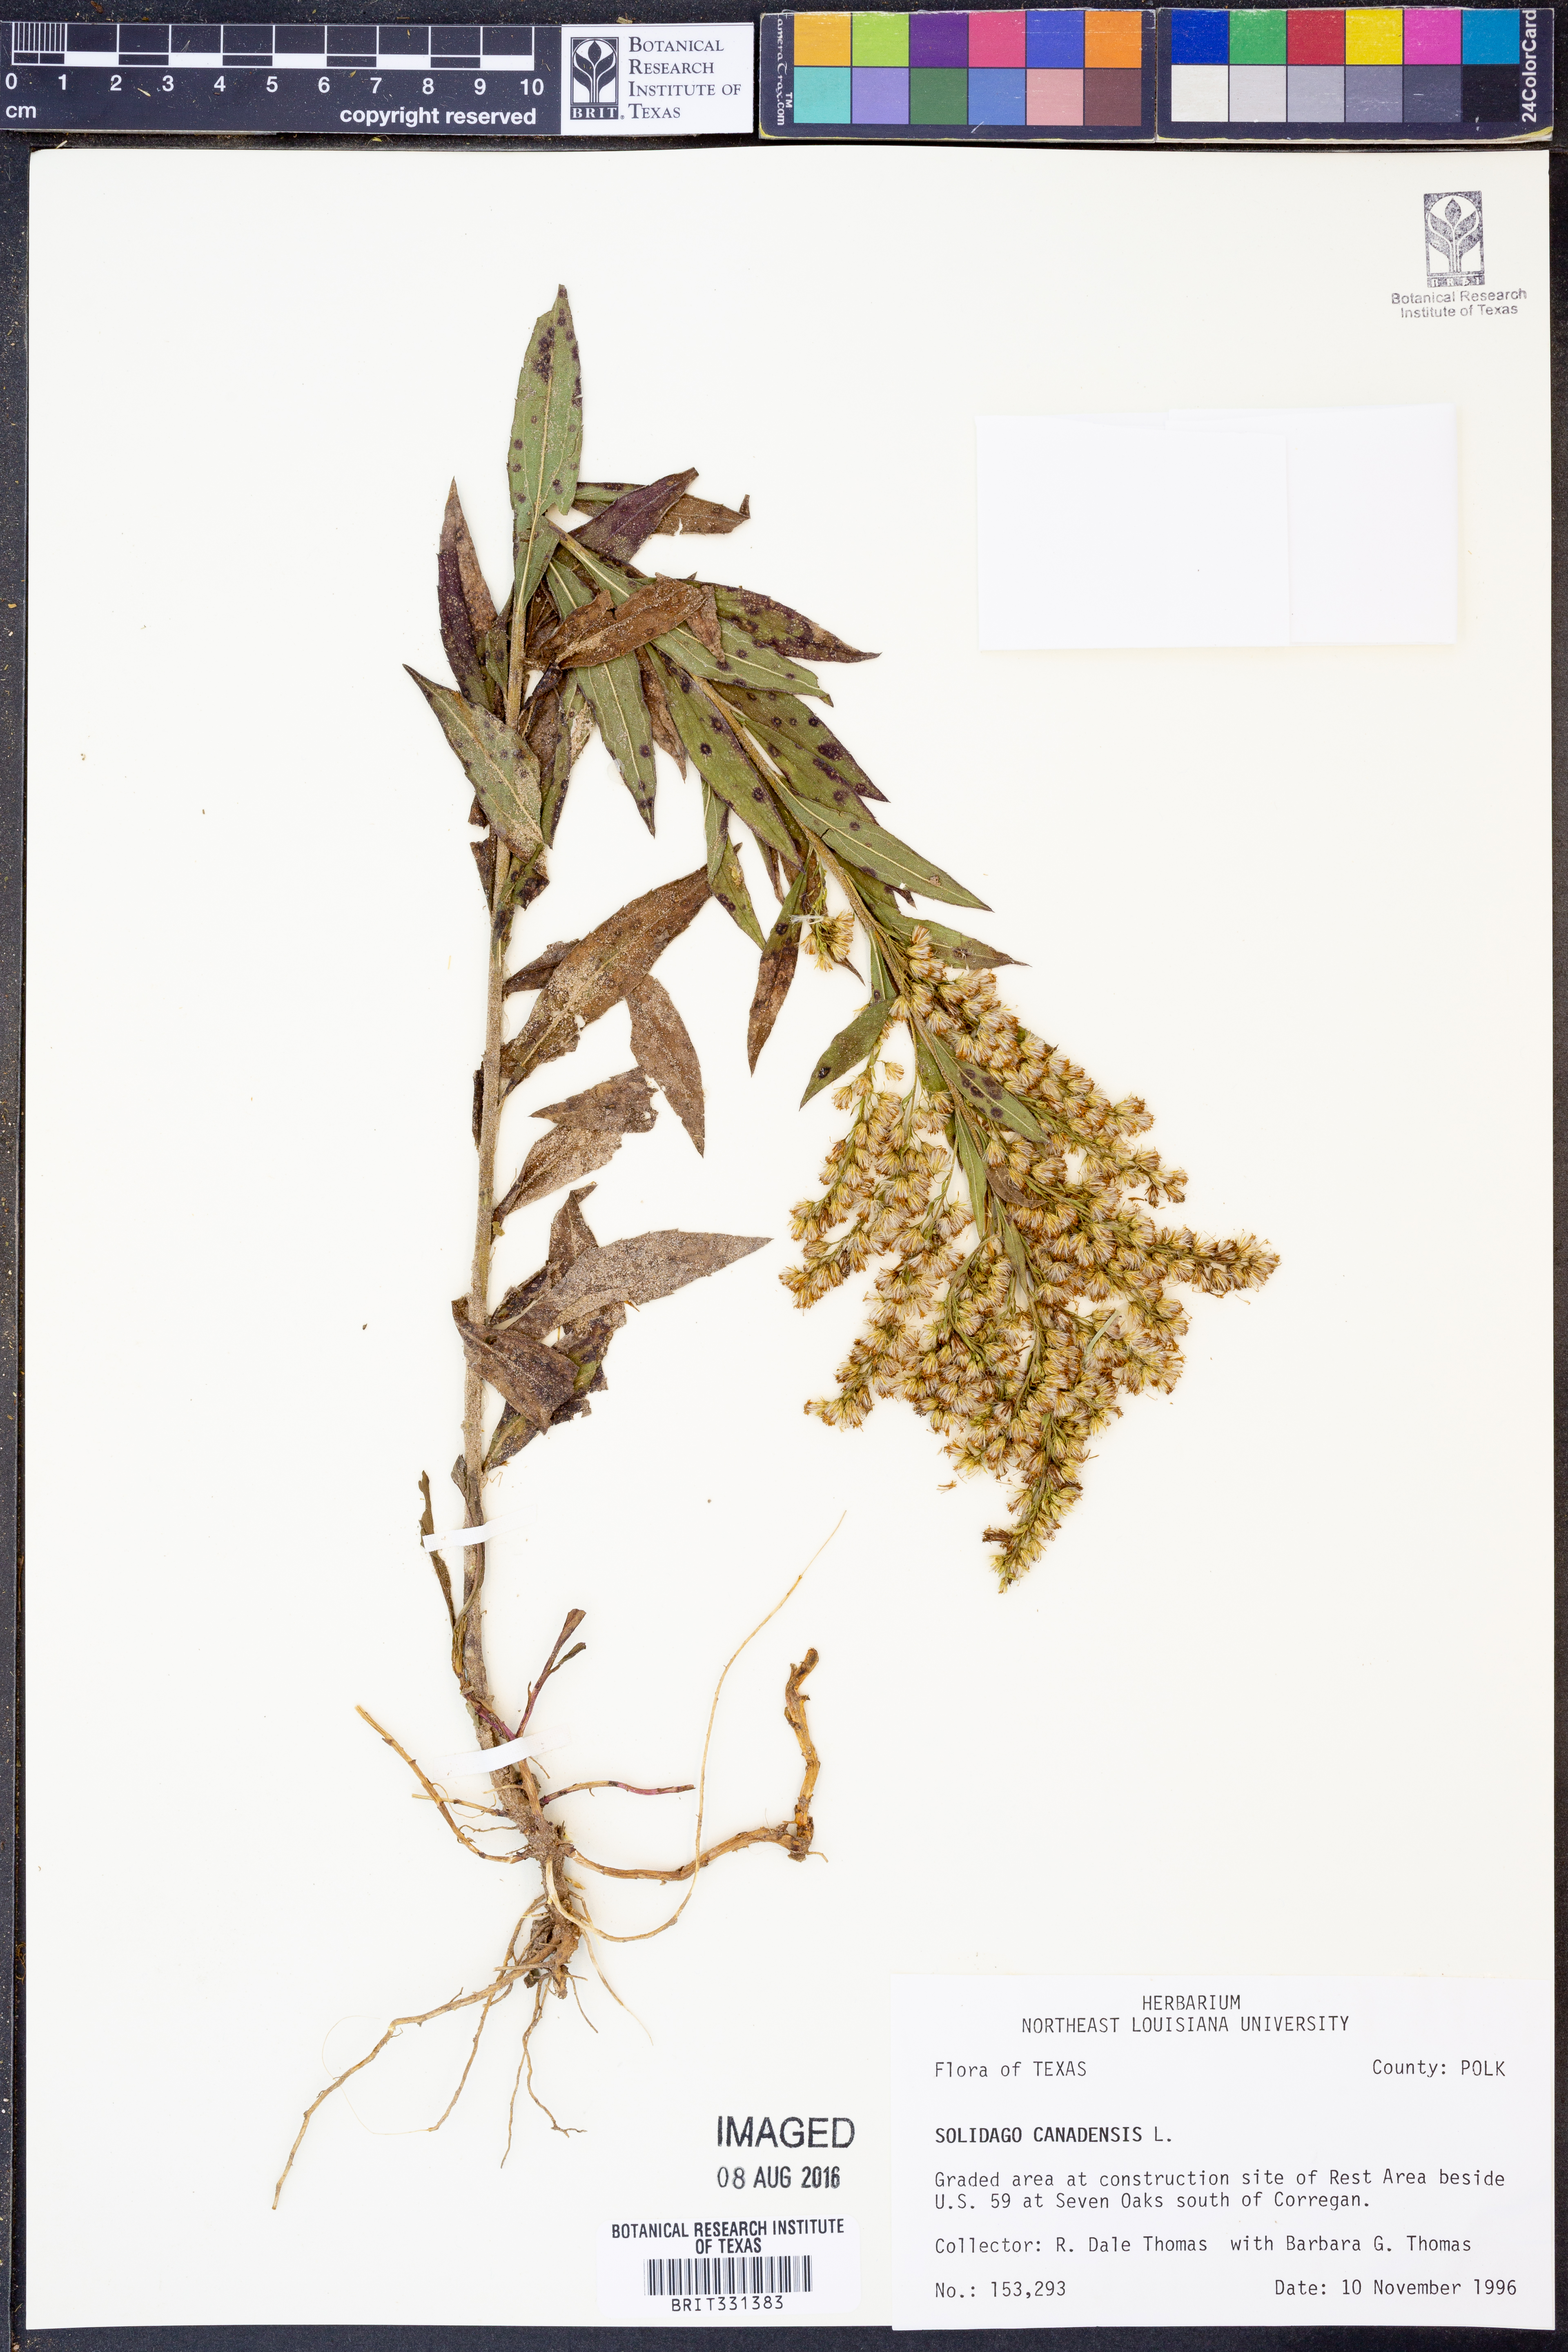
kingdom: Plantae
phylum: Tracheophyta
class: Magnoliopsida
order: Asterales
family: Asteraceae
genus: Solidago
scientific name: Solidago canadensis
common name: Canada goldenrod
